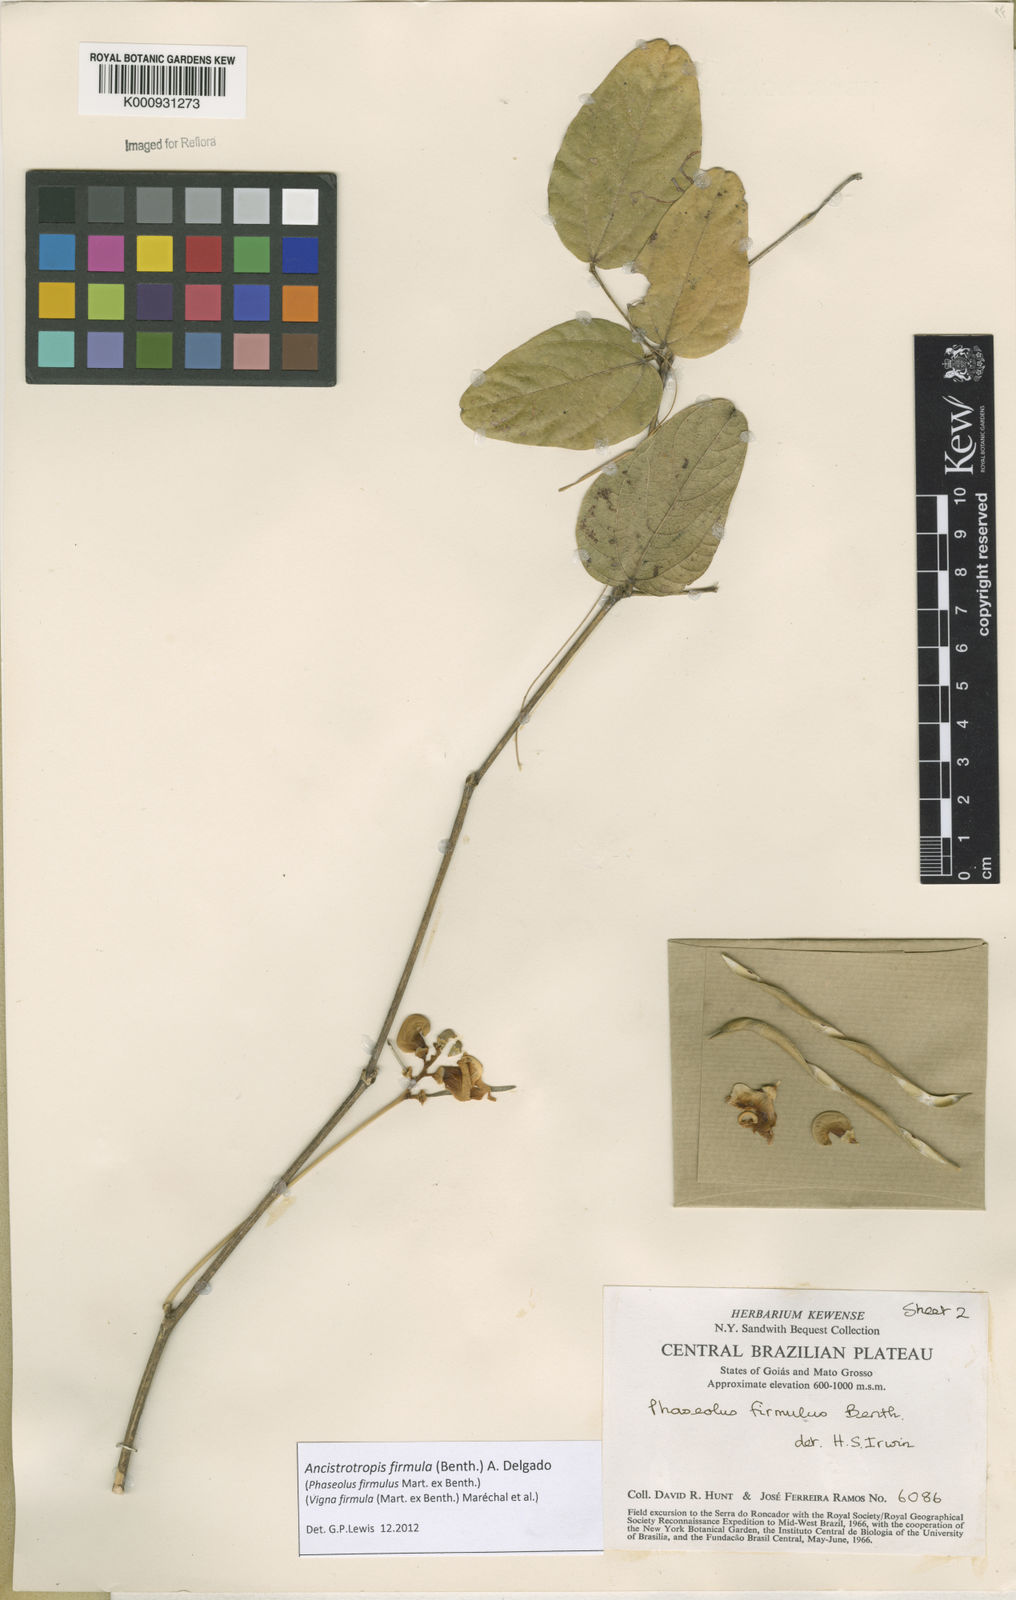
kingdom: Plantae
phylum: Tracheophyta
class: Magnoliopsida
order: Fabales
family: Fabaceae
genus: Ancistrotropis
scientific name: Ancistrotropis firmula
